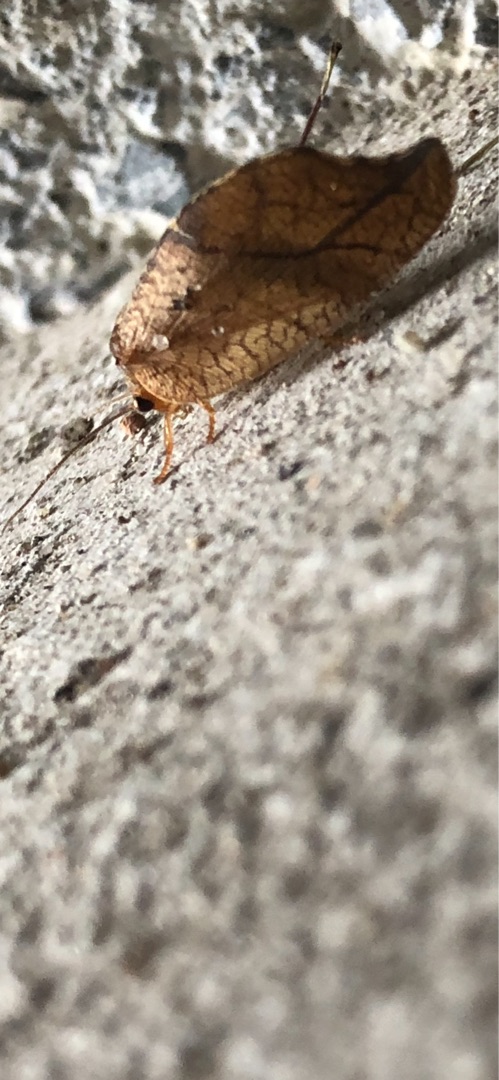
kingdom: Animalia
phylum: Arthropoda
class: Insecta
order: Neuroptera
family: Hemerobiidae
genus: Drepanepteryx
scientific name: Drepanepteryx phalaenoides
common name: Det visne blad
